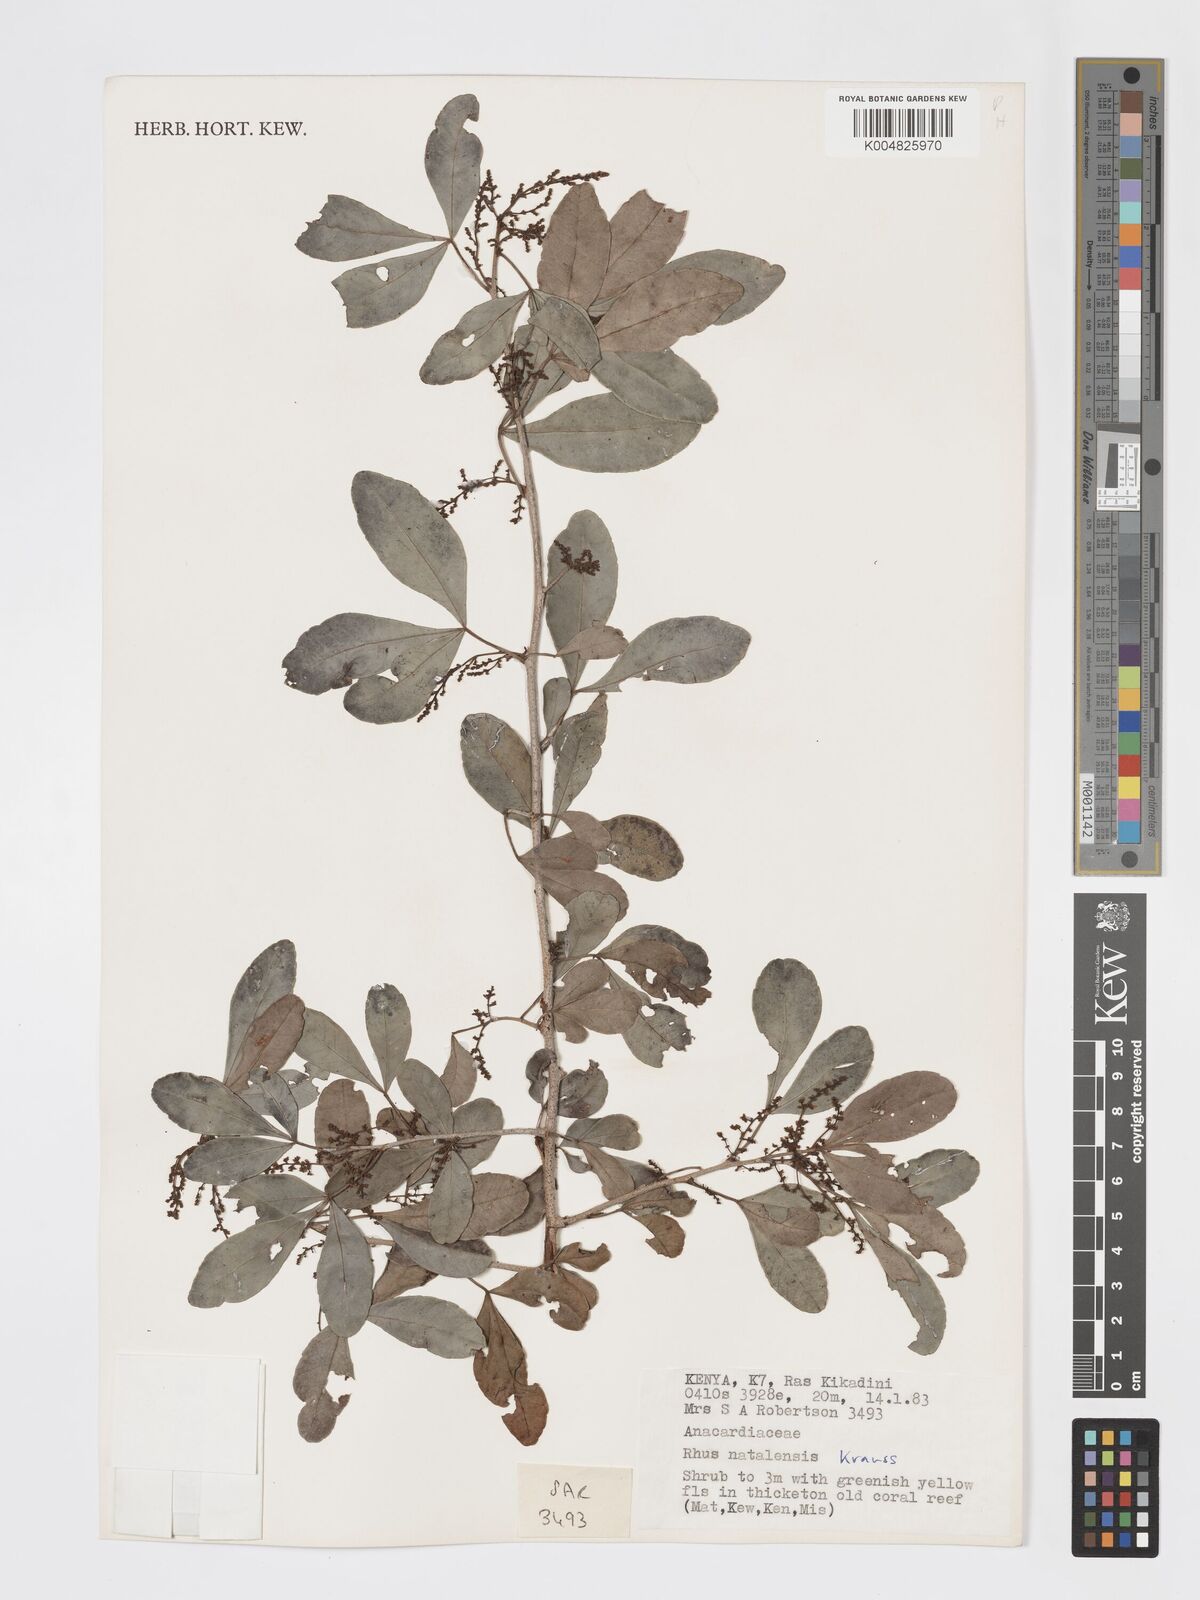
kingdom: Plantae
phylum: Tracheophyta
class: Magnoliopsida
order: Sapindales
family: Anacardiaceae
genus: Searsia
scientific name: Searsia natalensis
